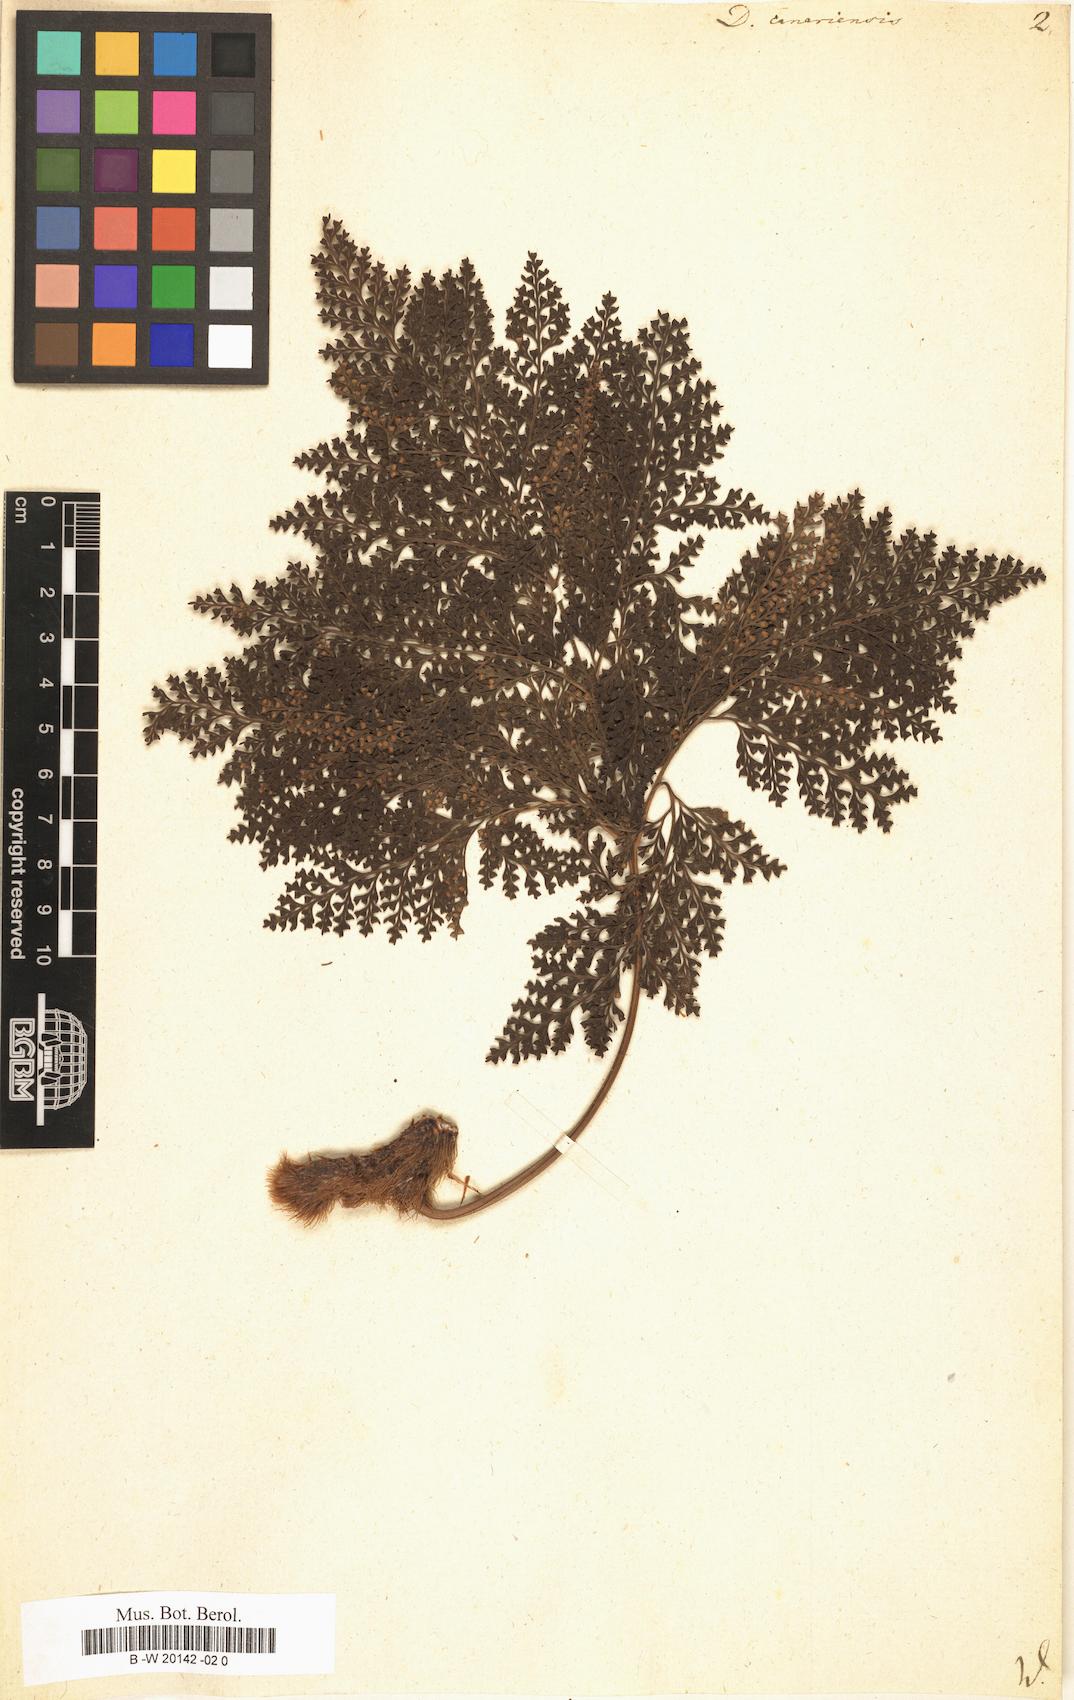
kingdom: Plantae
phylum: Tracheophyta
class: Polypodiopsida
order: Polypodiales
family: Davalliaceae
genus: Davallia
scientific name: Davallia canariensis
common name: Hare's-foot fern
